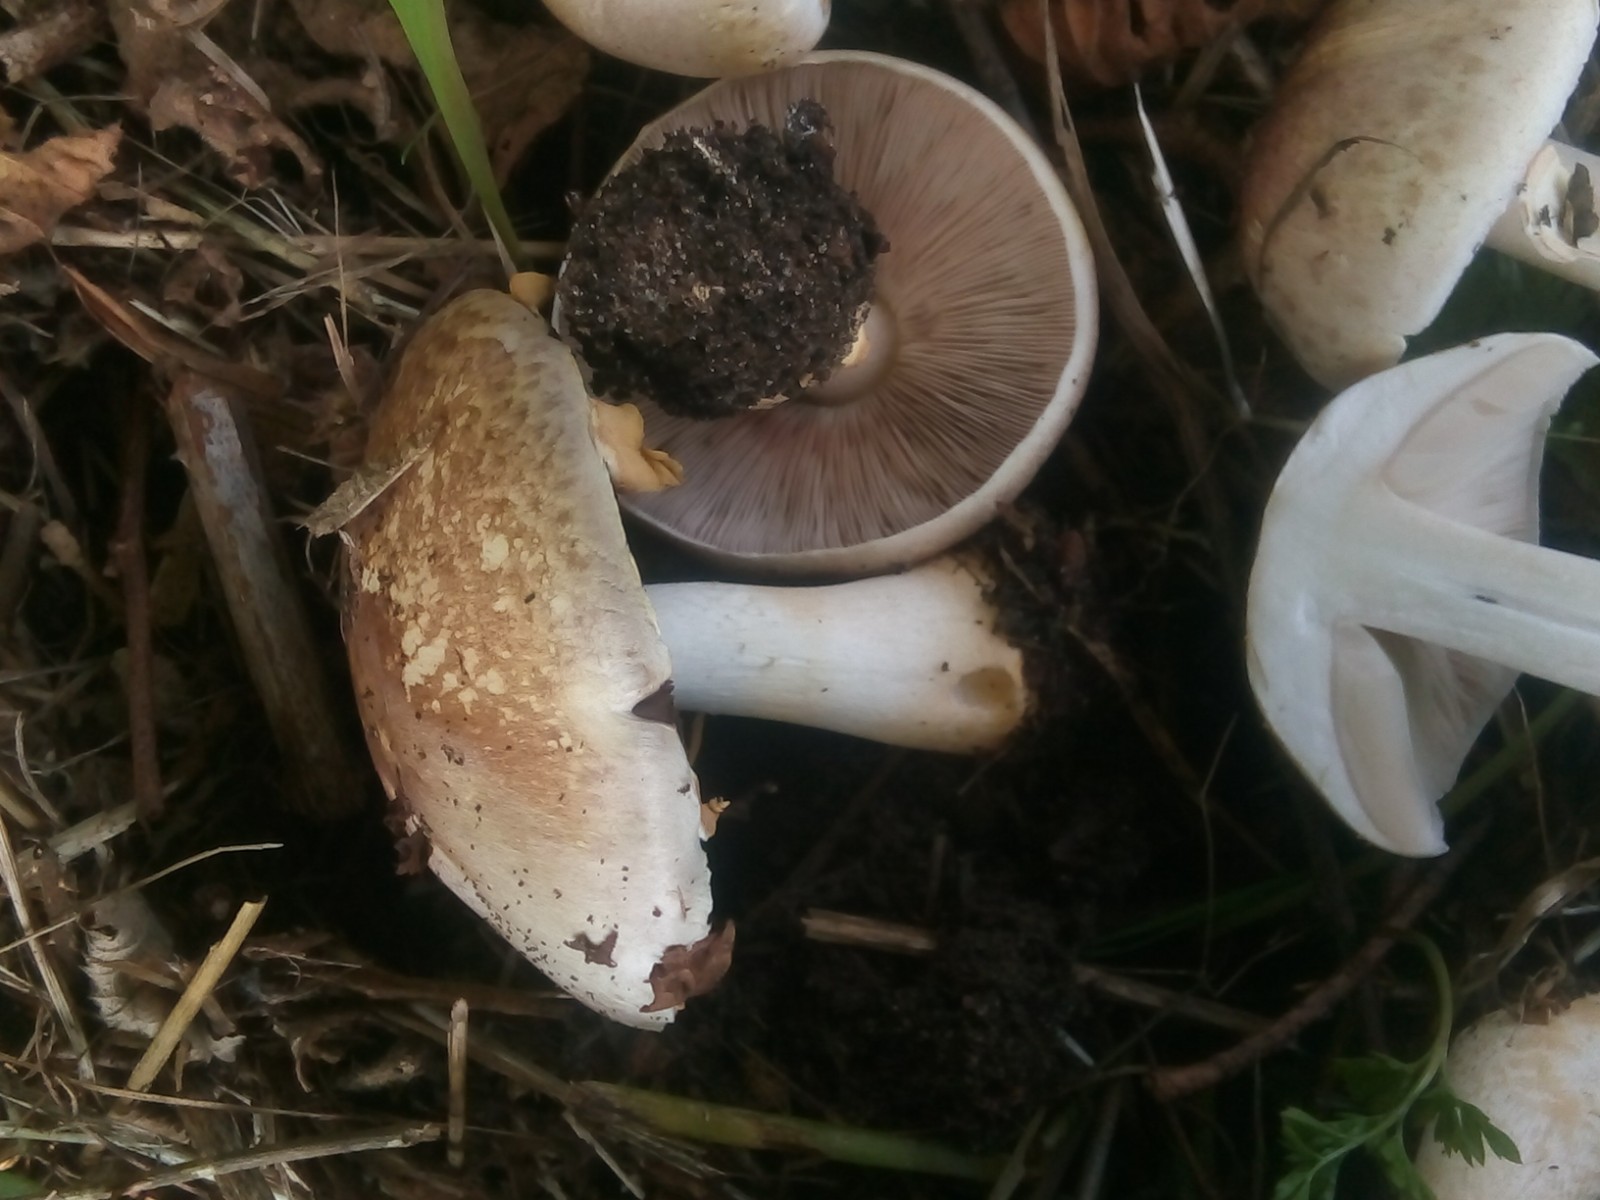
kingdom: Fungi
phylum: Basidiomycota
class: Agaricomycetes
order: Agaricales
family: Agaricaceae
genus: Agaricus
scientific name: Agaricus brunneolus
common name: purpur-champignon
